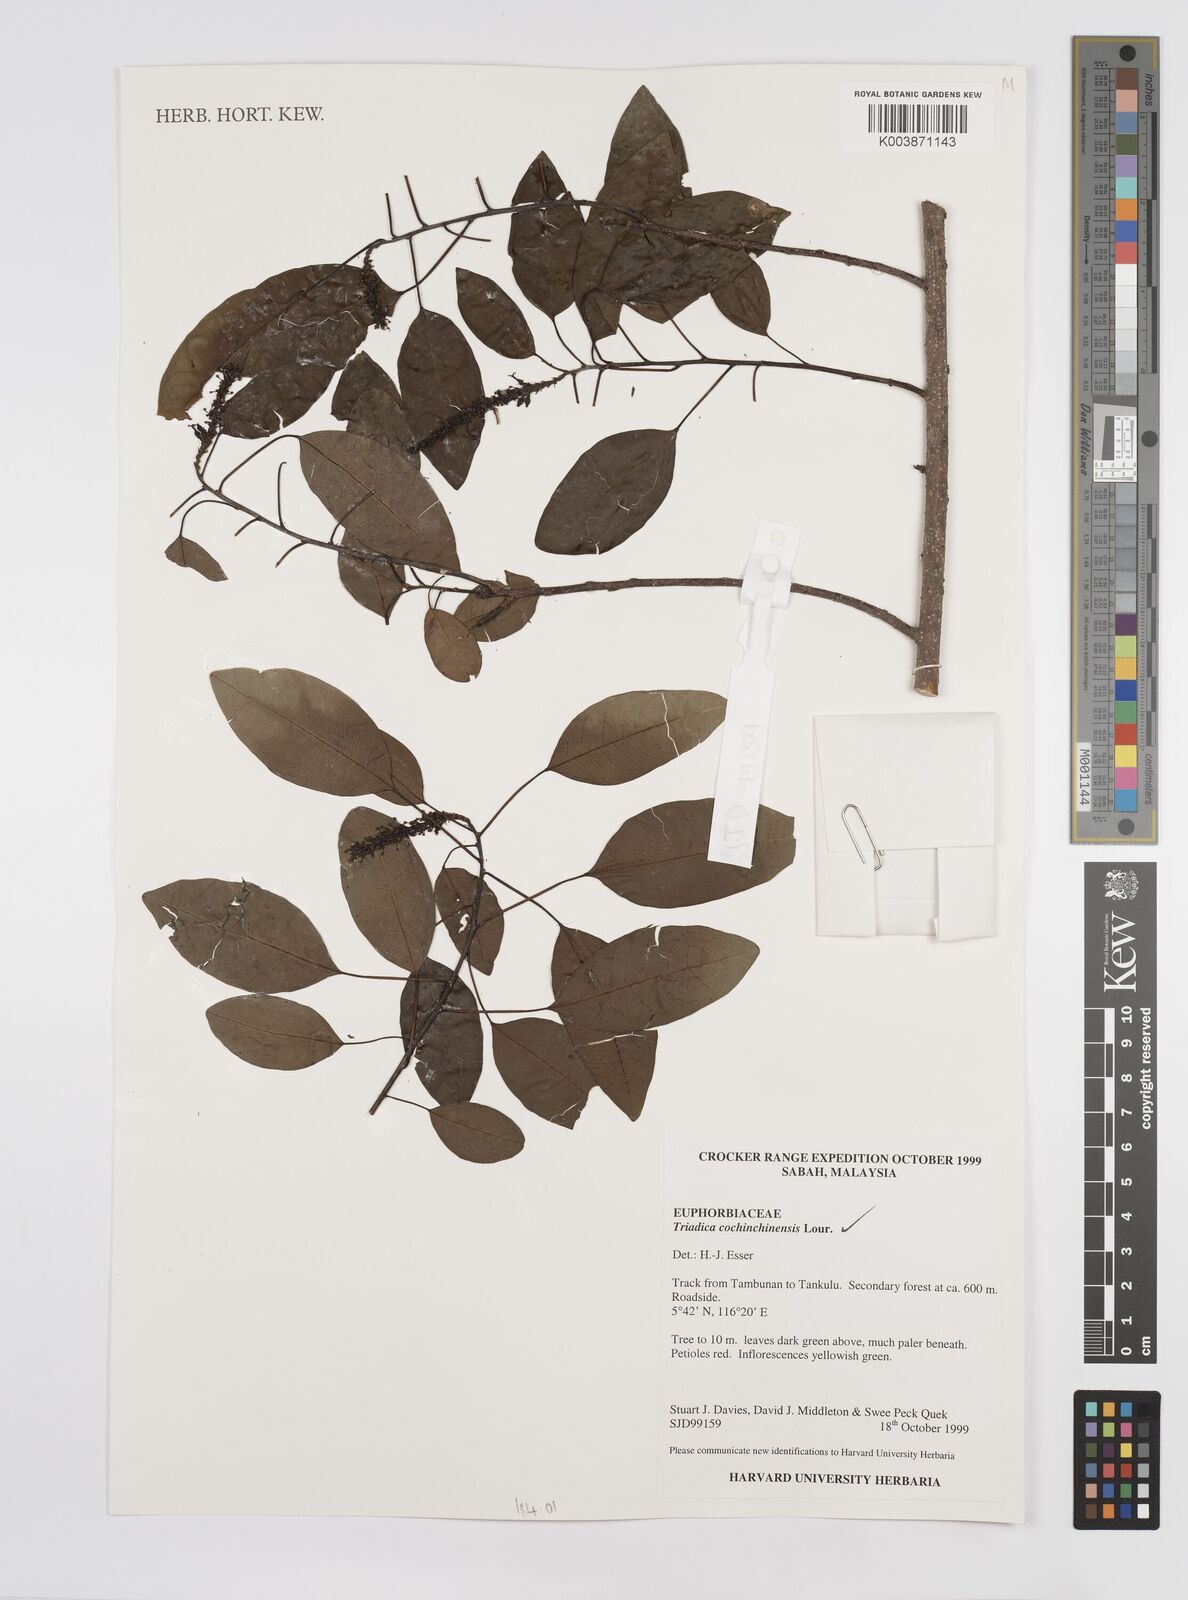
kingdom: Plantae
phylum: Tracheophyta
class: Magnoliopsida
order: Malpighiales
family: Euphorbiaceae
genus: Triadica
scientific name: Triadica cochinchinensis
